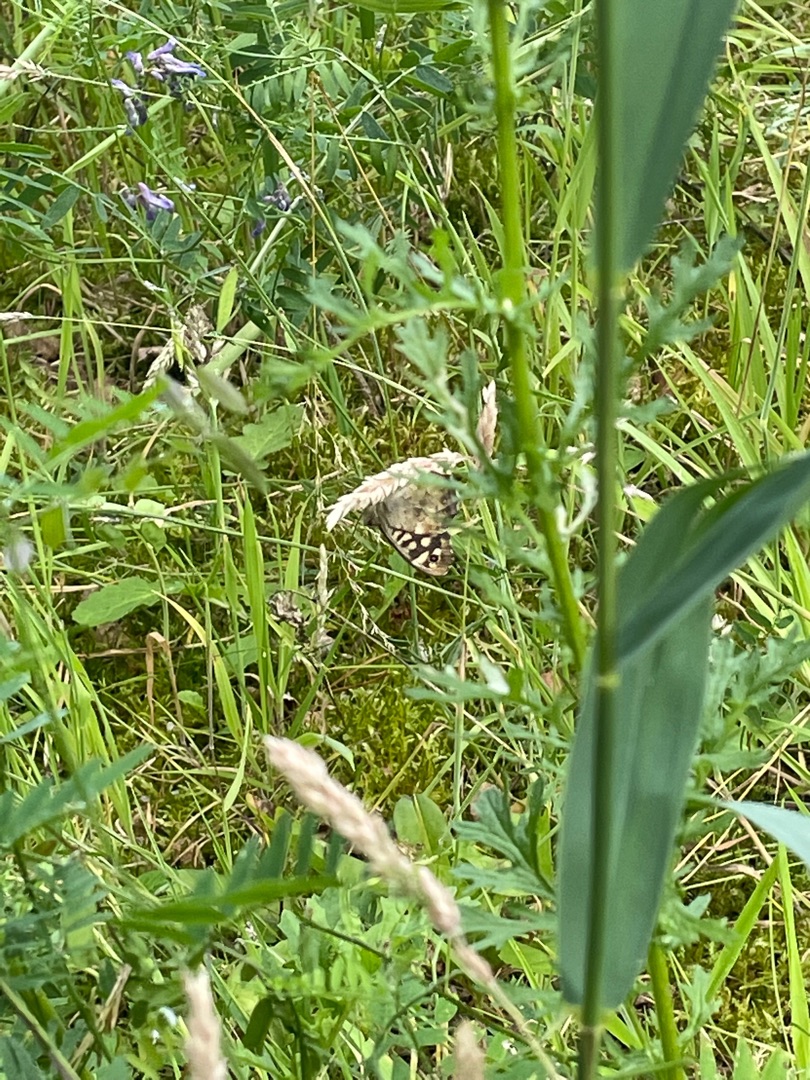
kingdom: Animalia
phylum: Arthropoda
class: Insecta
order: Lepidoptera
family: Nymphalidae
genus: Pararge
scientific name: Pararge aegeria
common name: Skovrandøje
